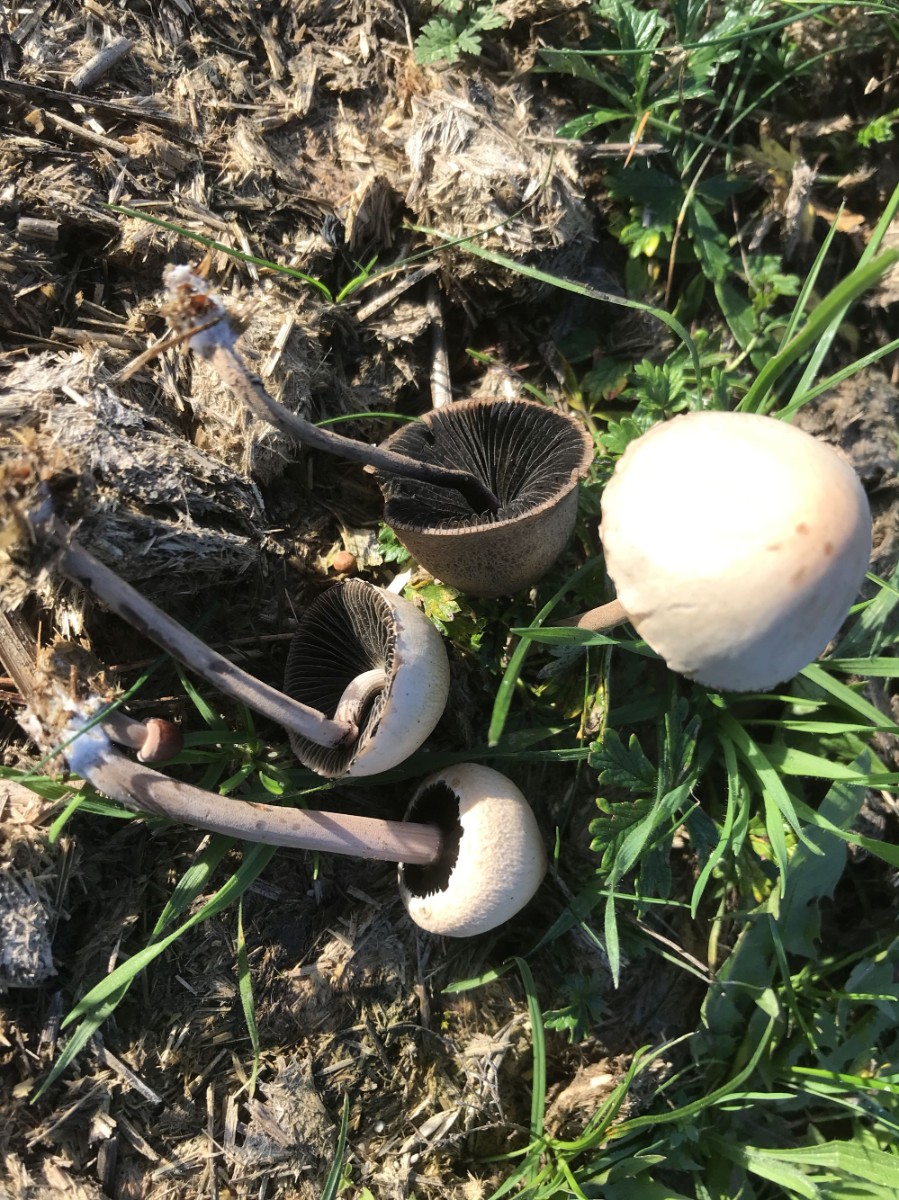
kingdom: Fungi
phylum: Basidiomycota
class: Agaricomycetes
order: Agaricales
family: Bolbitiaceae
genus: Panaeolus
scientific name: Panaeolus papilionaceus
